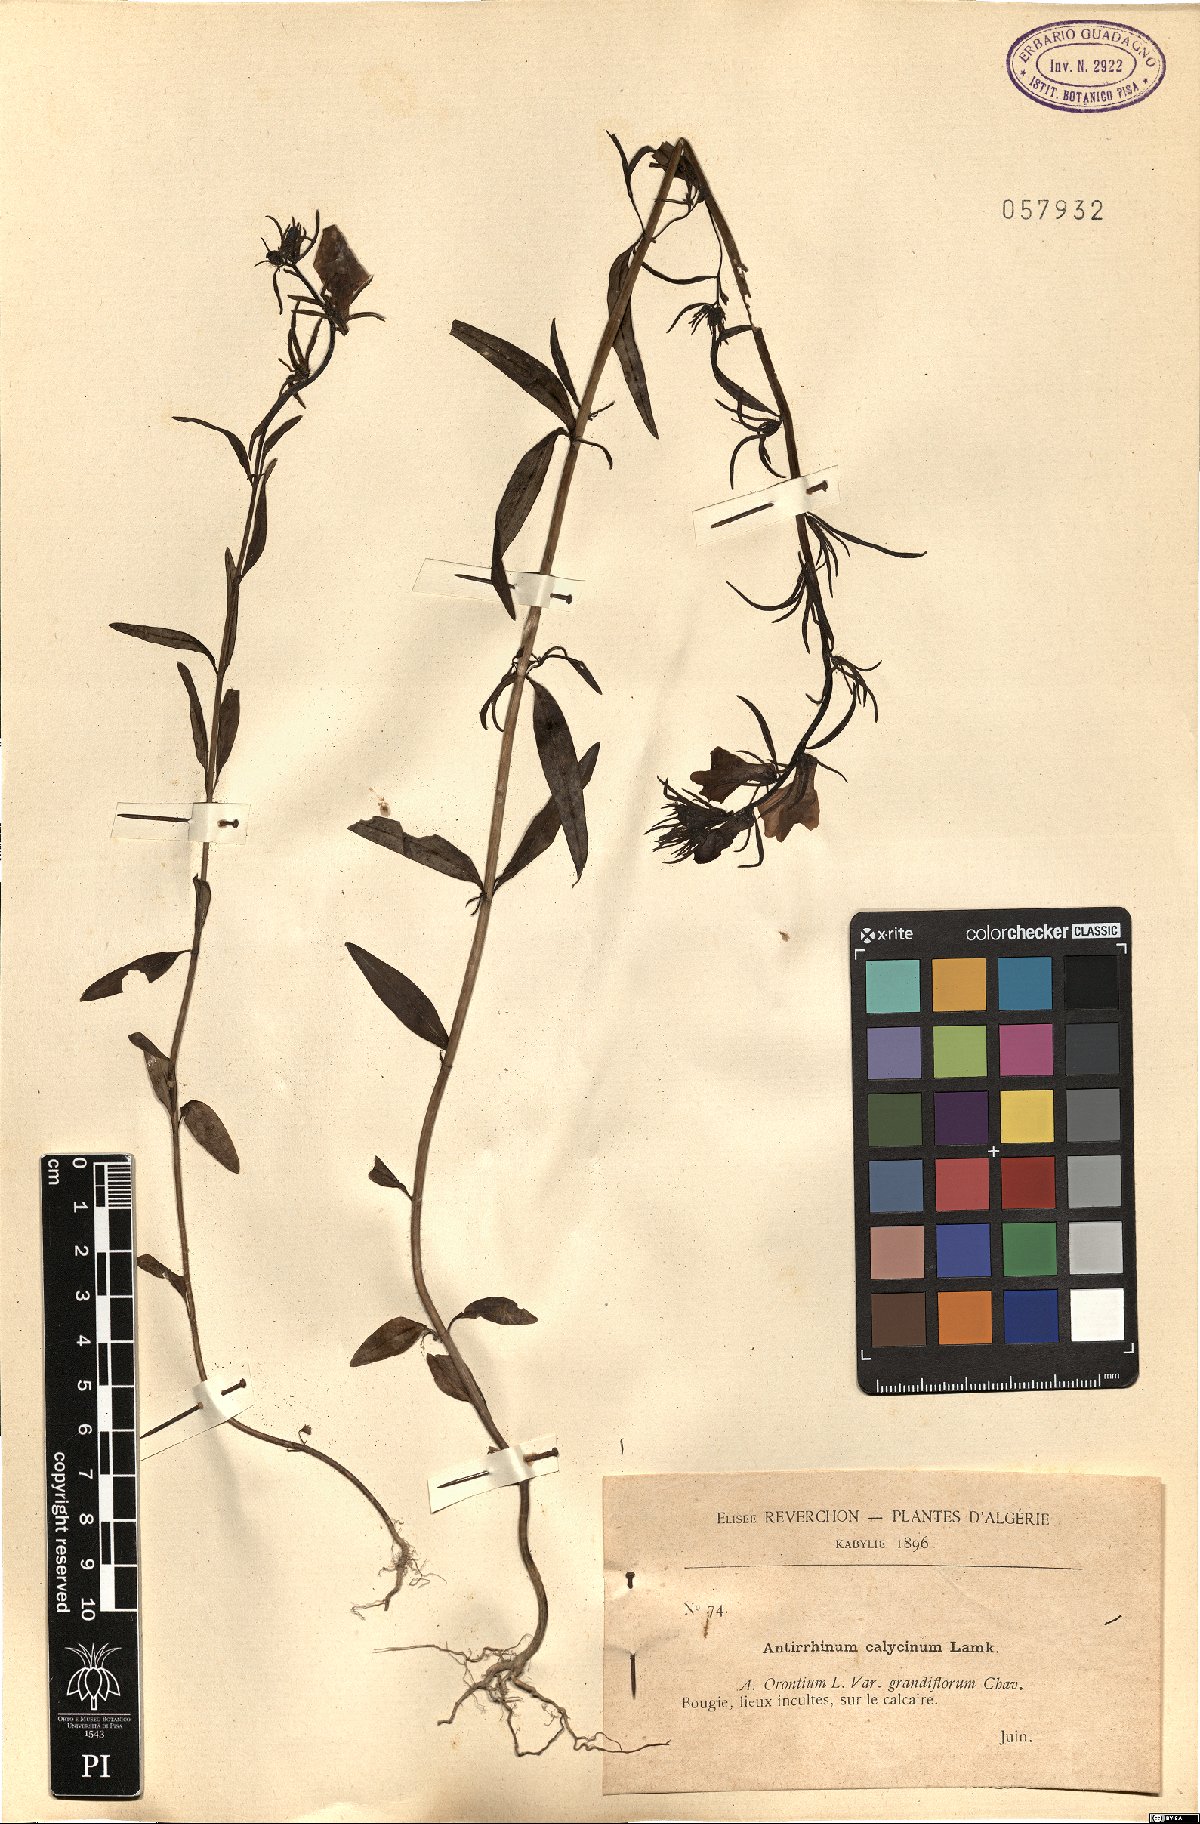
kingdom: Plantae
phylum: Tracheophyta
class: Magnoliopsida
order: Lamiales
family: Plantaginaceae
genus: Chaenorhinum
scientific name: Chaenorhinum calycinum
